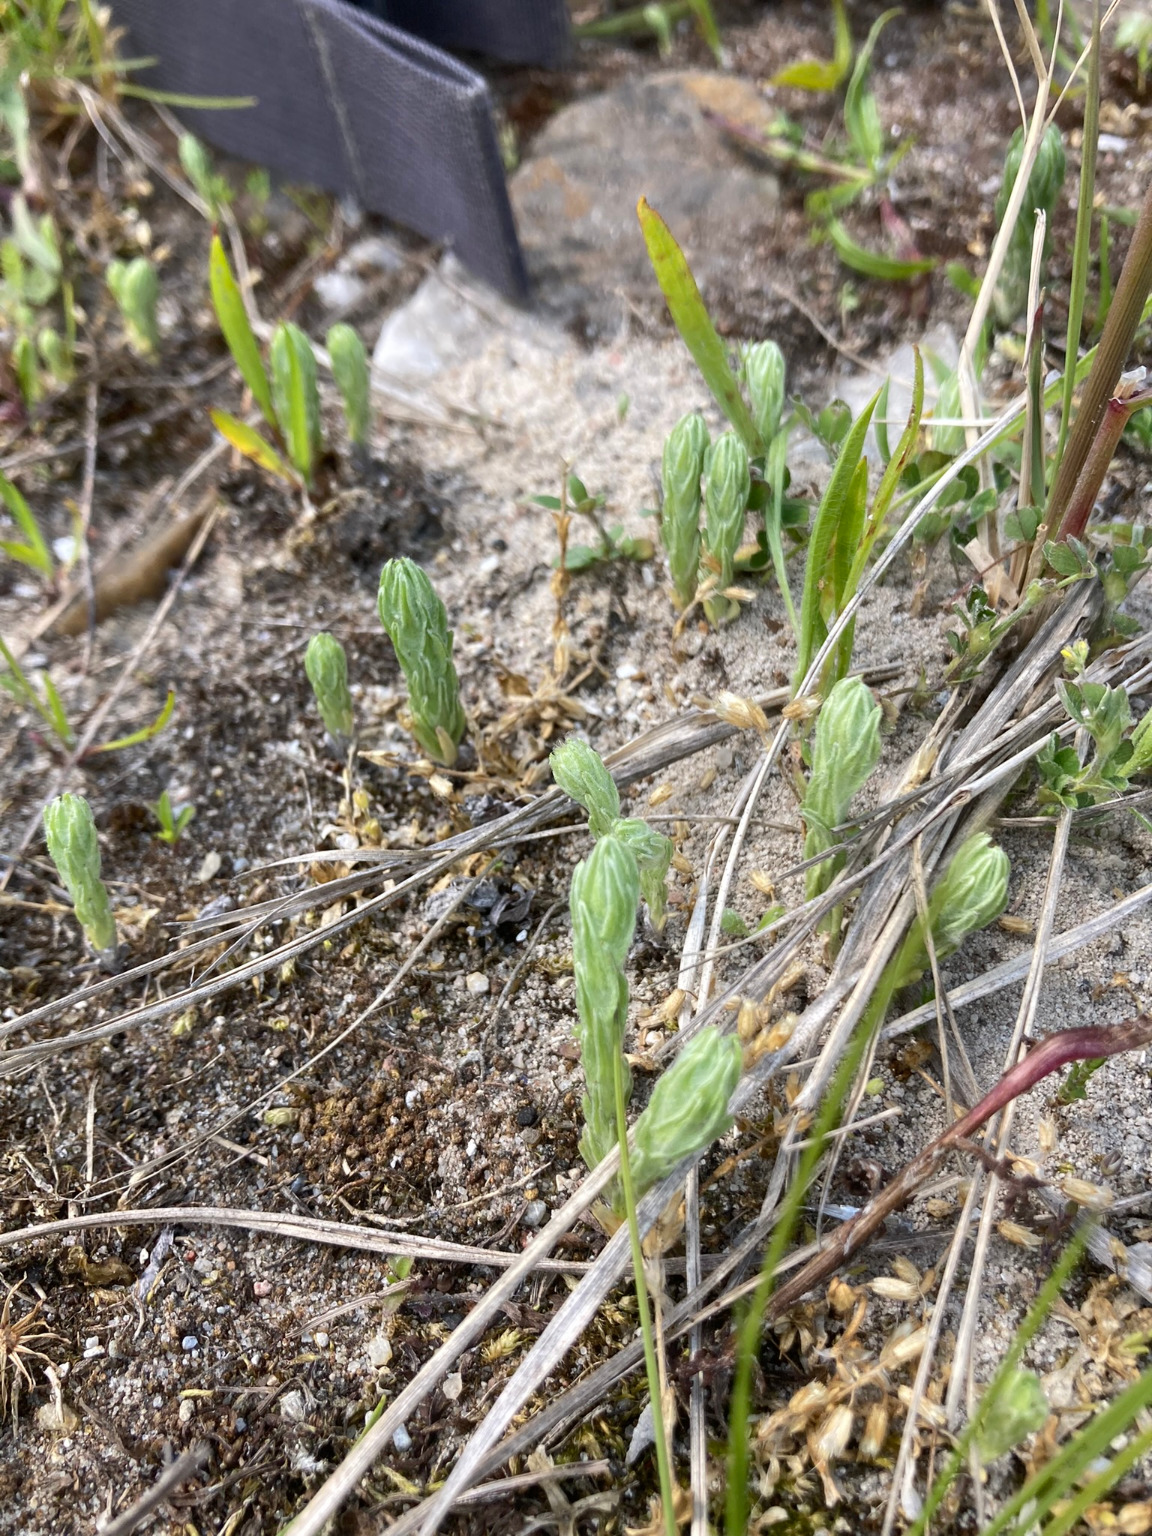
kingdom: Plantae
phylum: Tracheophyta
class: Magnoliopsida
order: Asterales
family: Asteraceae
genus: Filago
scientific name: Filago germanica
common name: Kugle-museurt
